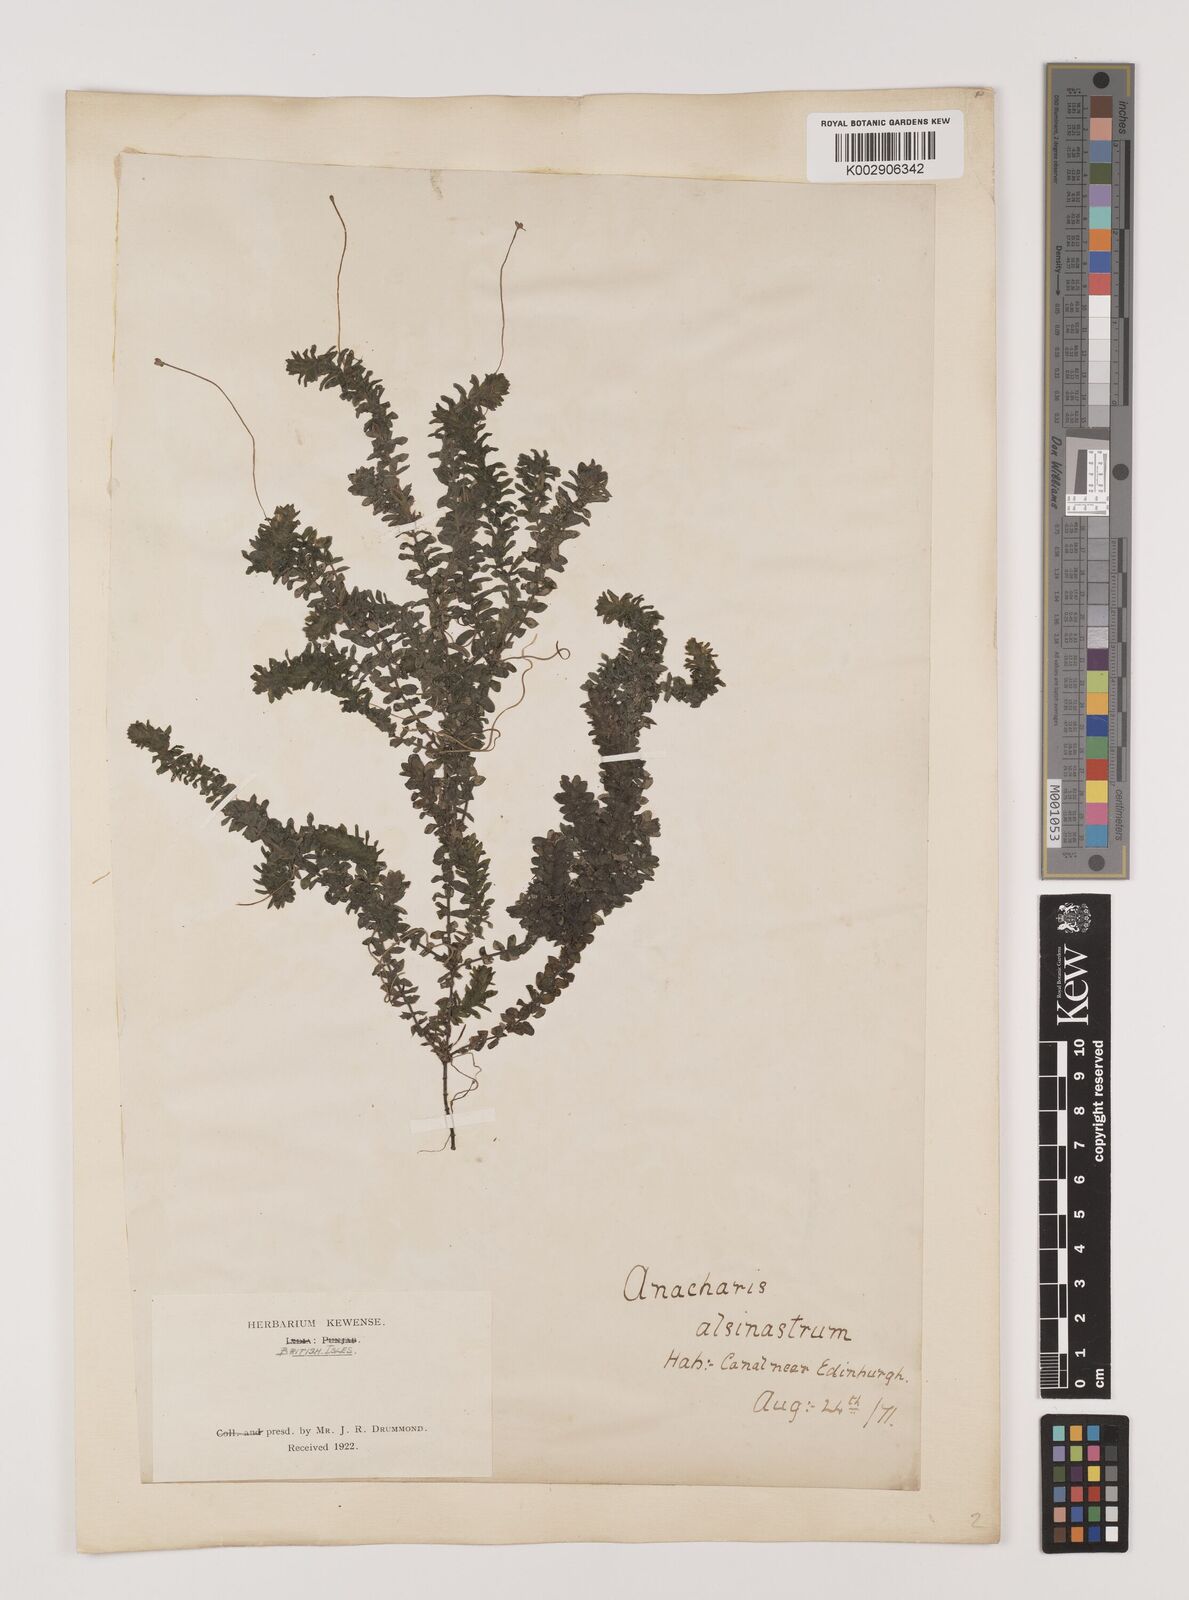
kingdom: Plantae
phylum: Tracheophyta
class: Liliopsida
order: Alismatales
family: Hydrocharitaceae
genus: Elodea
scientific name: Elodea canadensis
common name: Canadian waterweed
